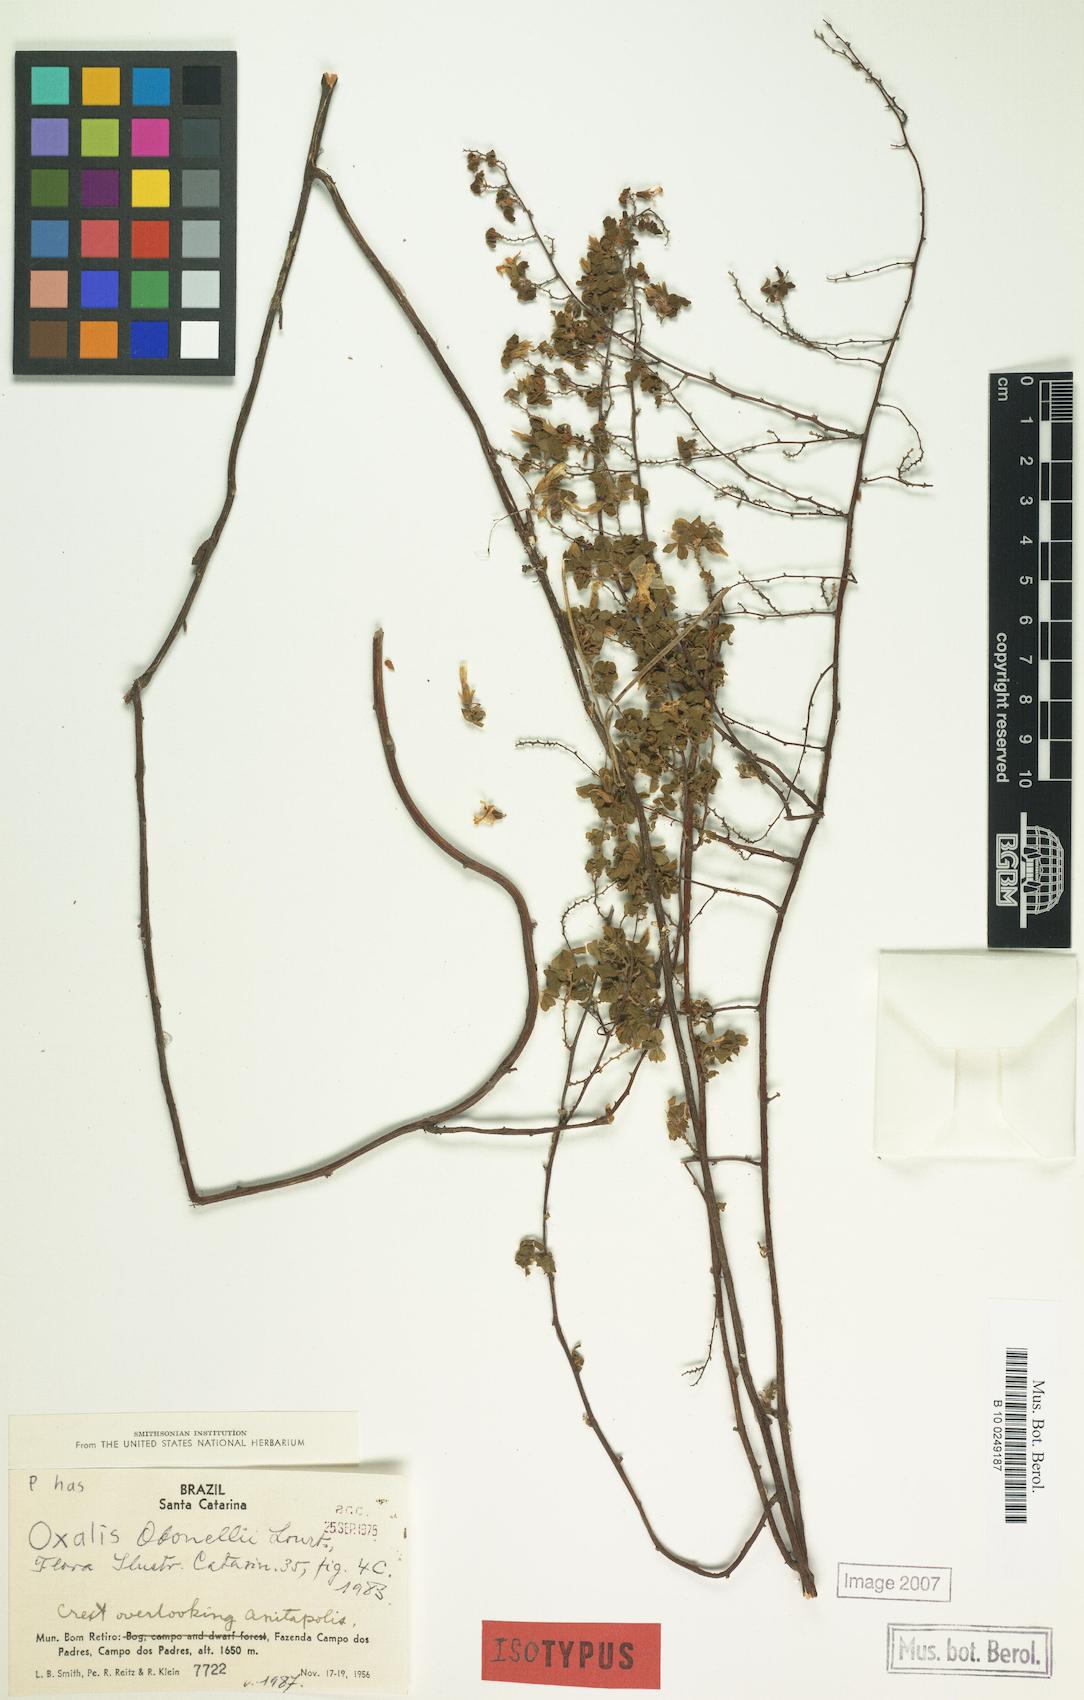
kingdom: Plantae
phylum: Tracheophyta
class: Magnoliopsida
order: Oxalidales
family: Oxalidaceae
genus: Oxalis
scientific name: Oxalis odonellii
